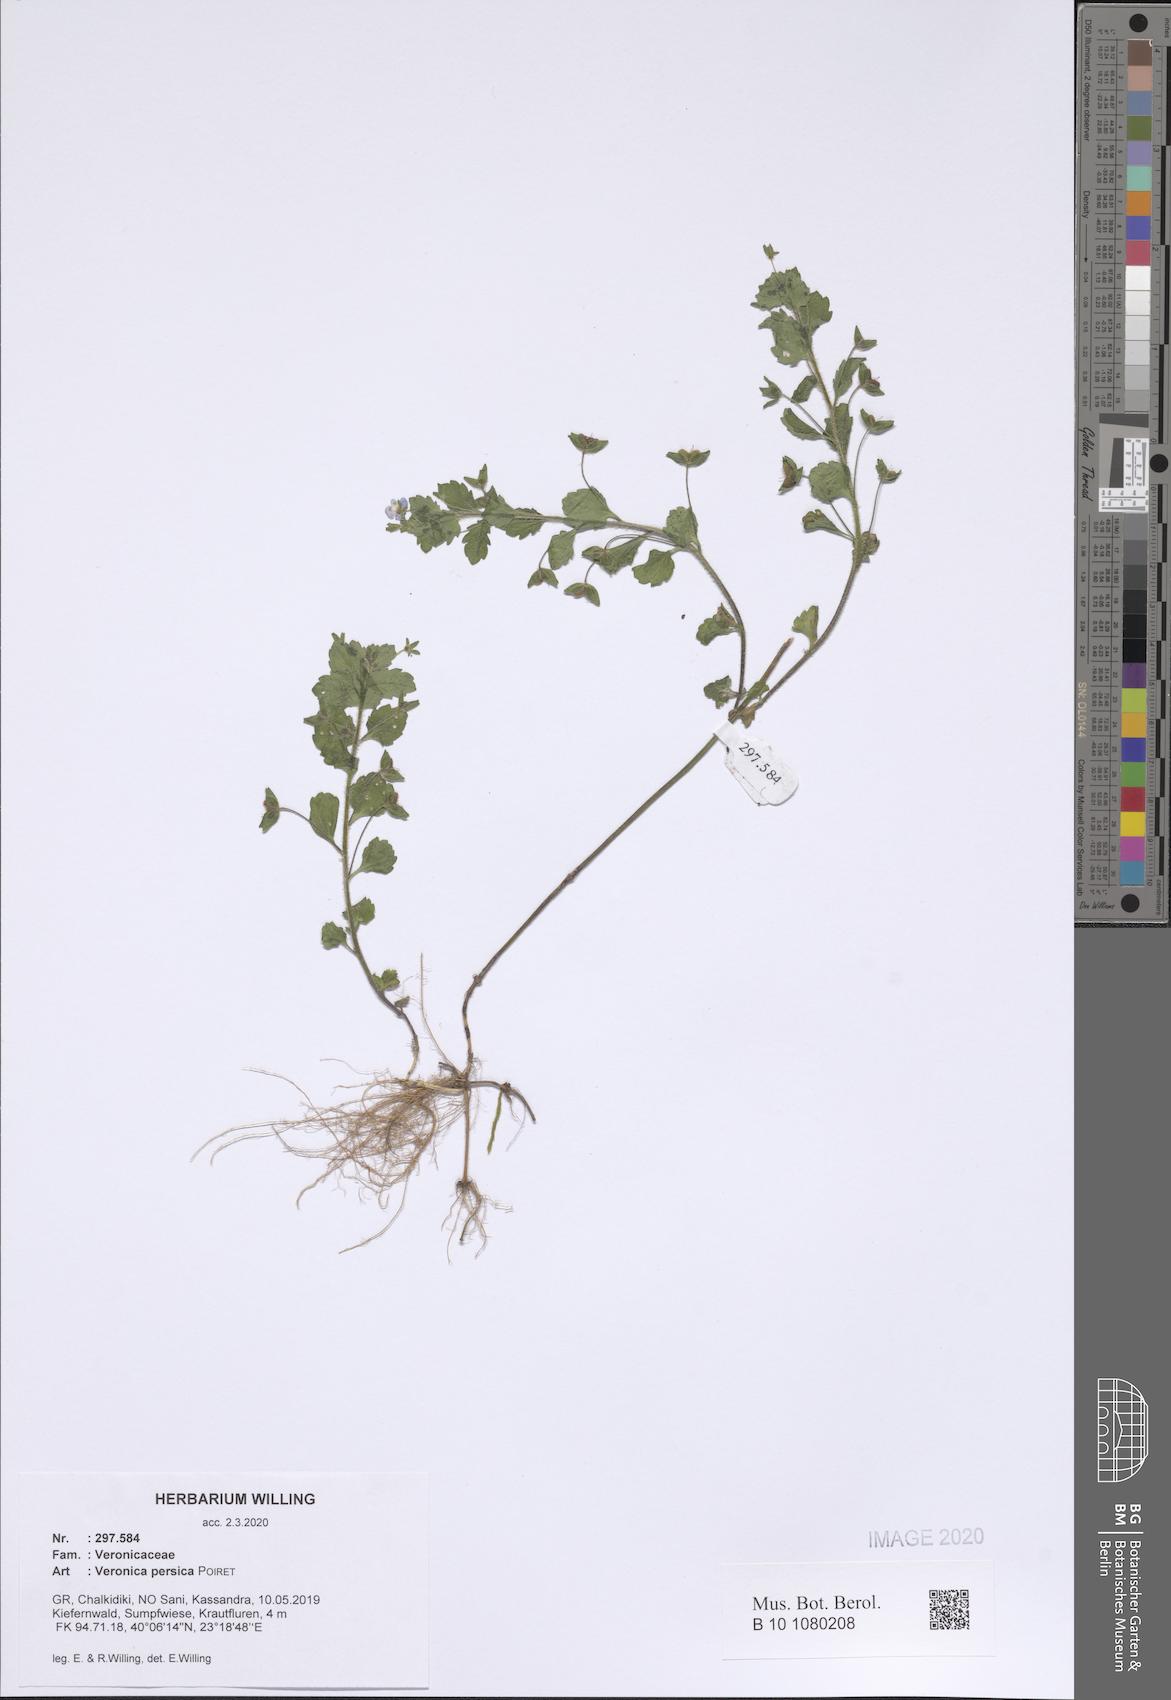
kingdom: Plantae
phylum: Tracheophyta
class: Magnoliopsida
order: Lamiales
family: Plantaginaceae
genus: Veronica
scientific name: Veronica persica
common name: Common field-speedwell
